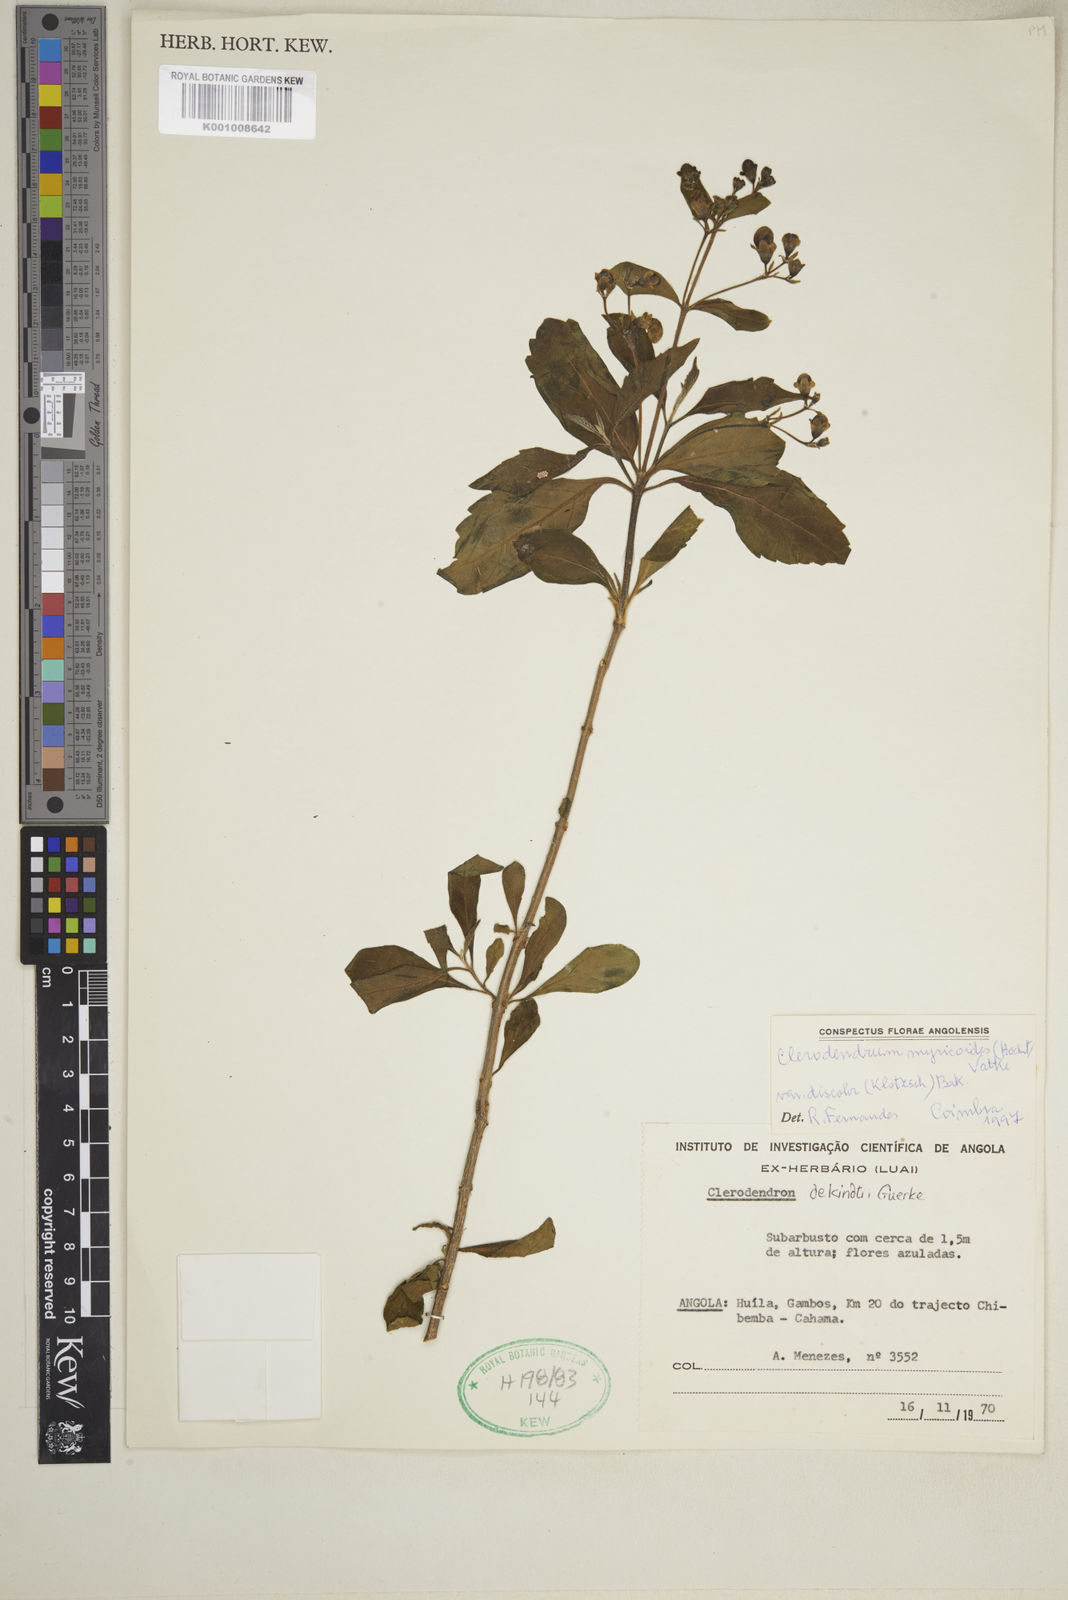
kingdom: Plantae
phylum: Tracheophyta
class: Magnoliopsida
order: Lamiales
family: Lamiaceae
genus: Rotheca
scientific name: Rotheca myricoides
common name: Cats-whiskers
